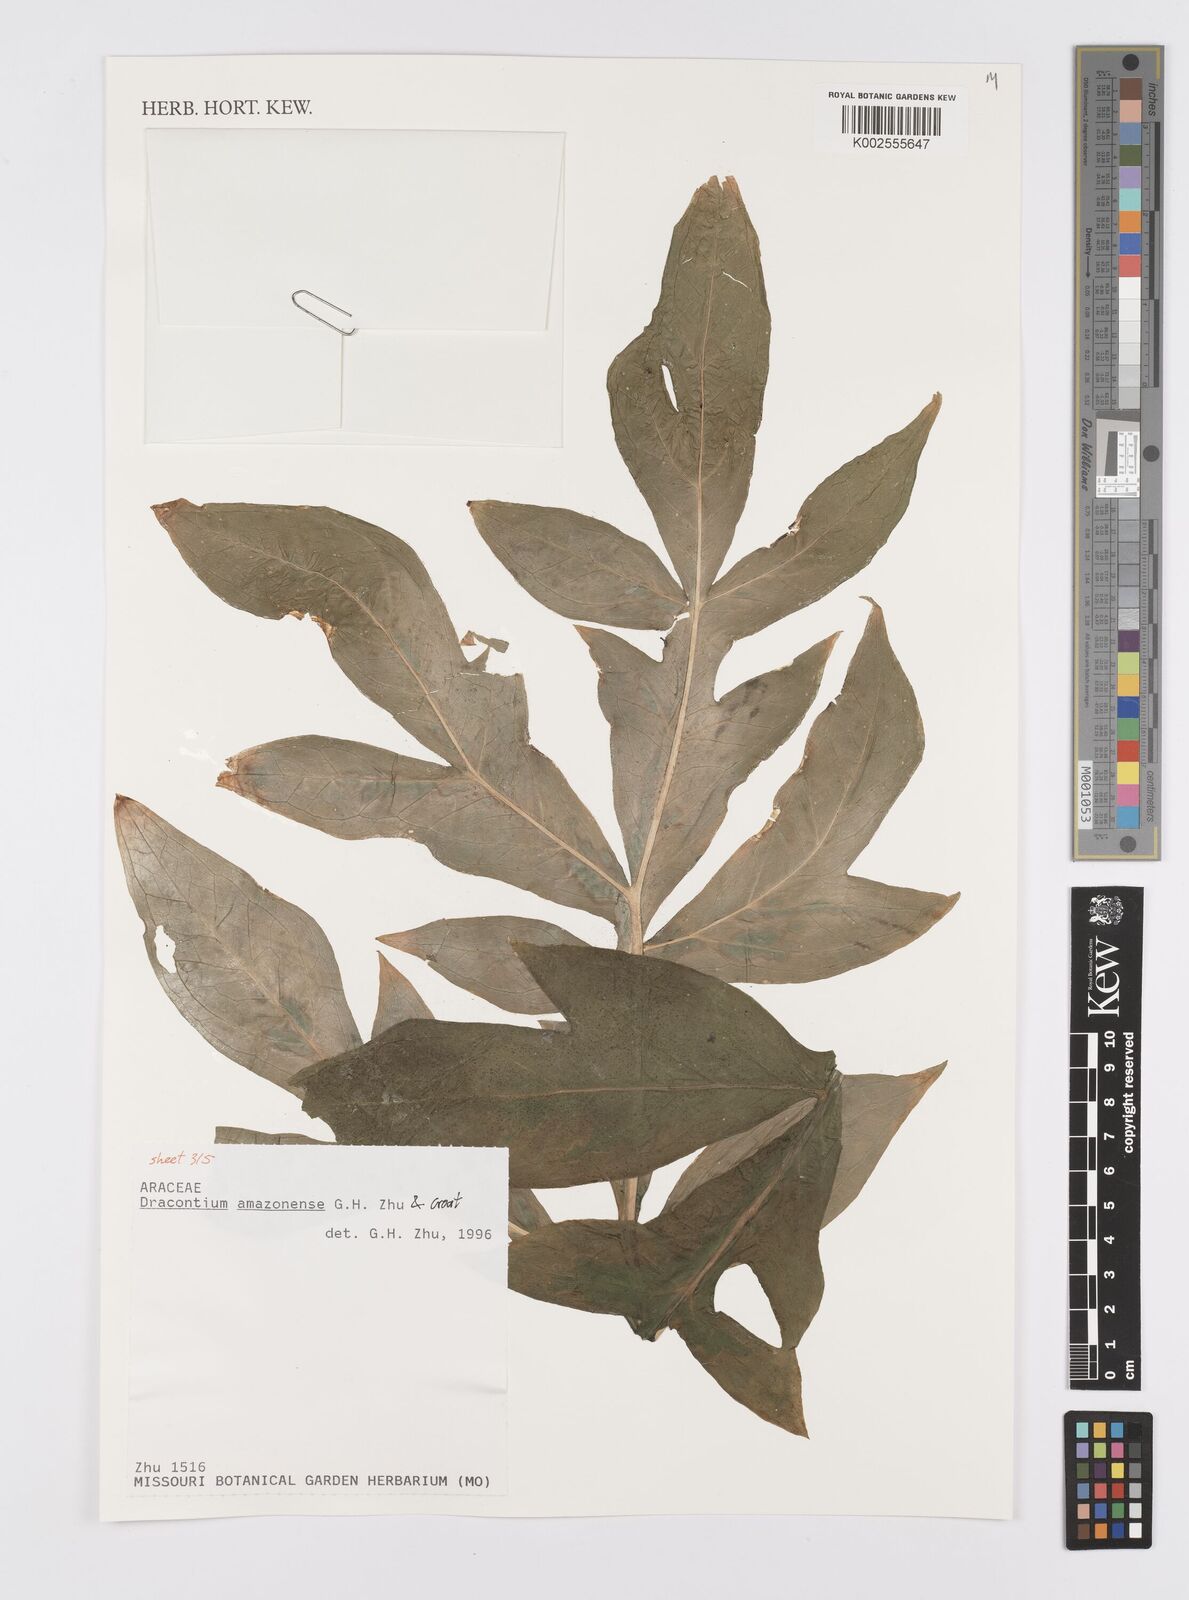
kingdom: Plantae
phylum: Tracheophyta
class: Liliopsida
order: Alismatales
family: Araceae
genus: Dracontium
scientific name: Dracontium amazonense
